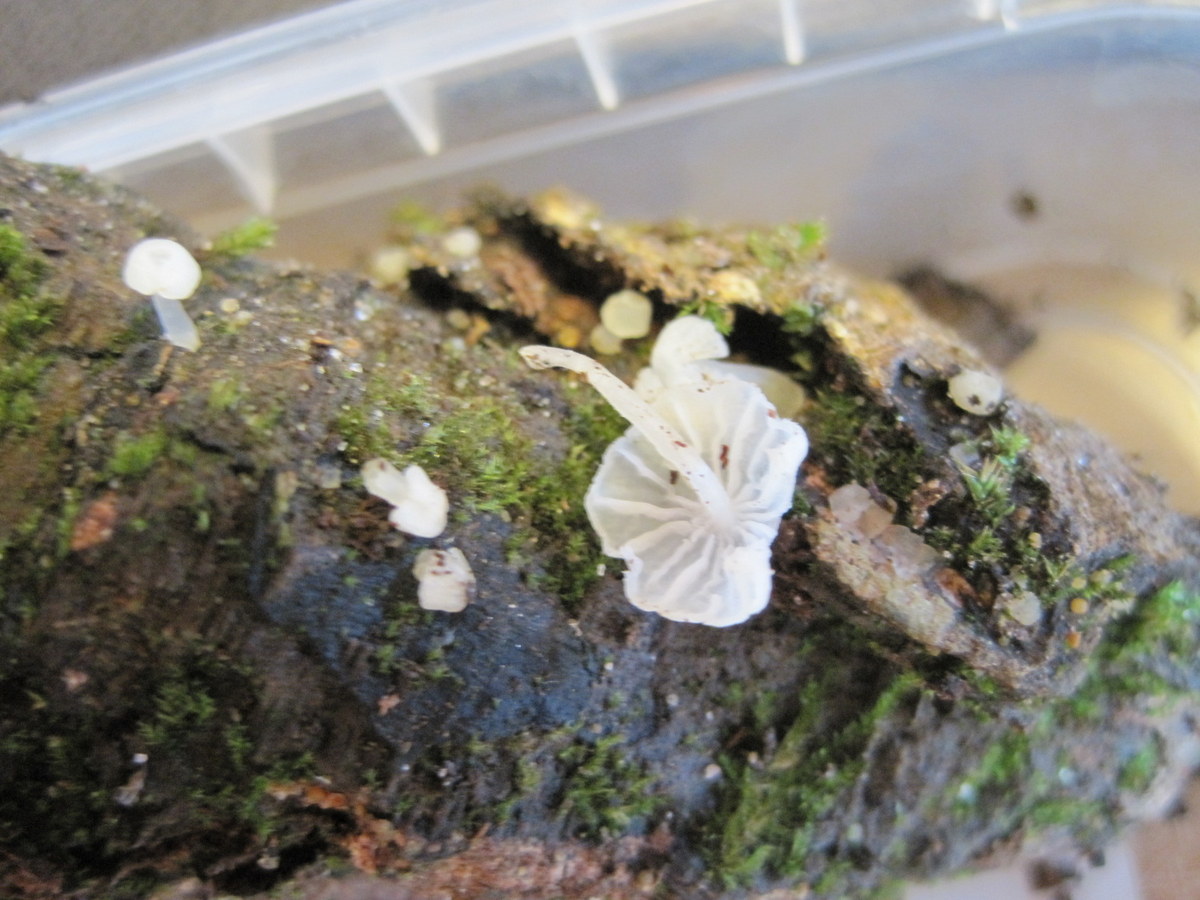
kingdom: Fungi
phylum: Basidiomycota
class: Agaricomycetes
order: Agaricales
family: Tricholomataceae
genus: Delicatula
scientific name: Delicatula integrella
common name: slørhuesvamp
